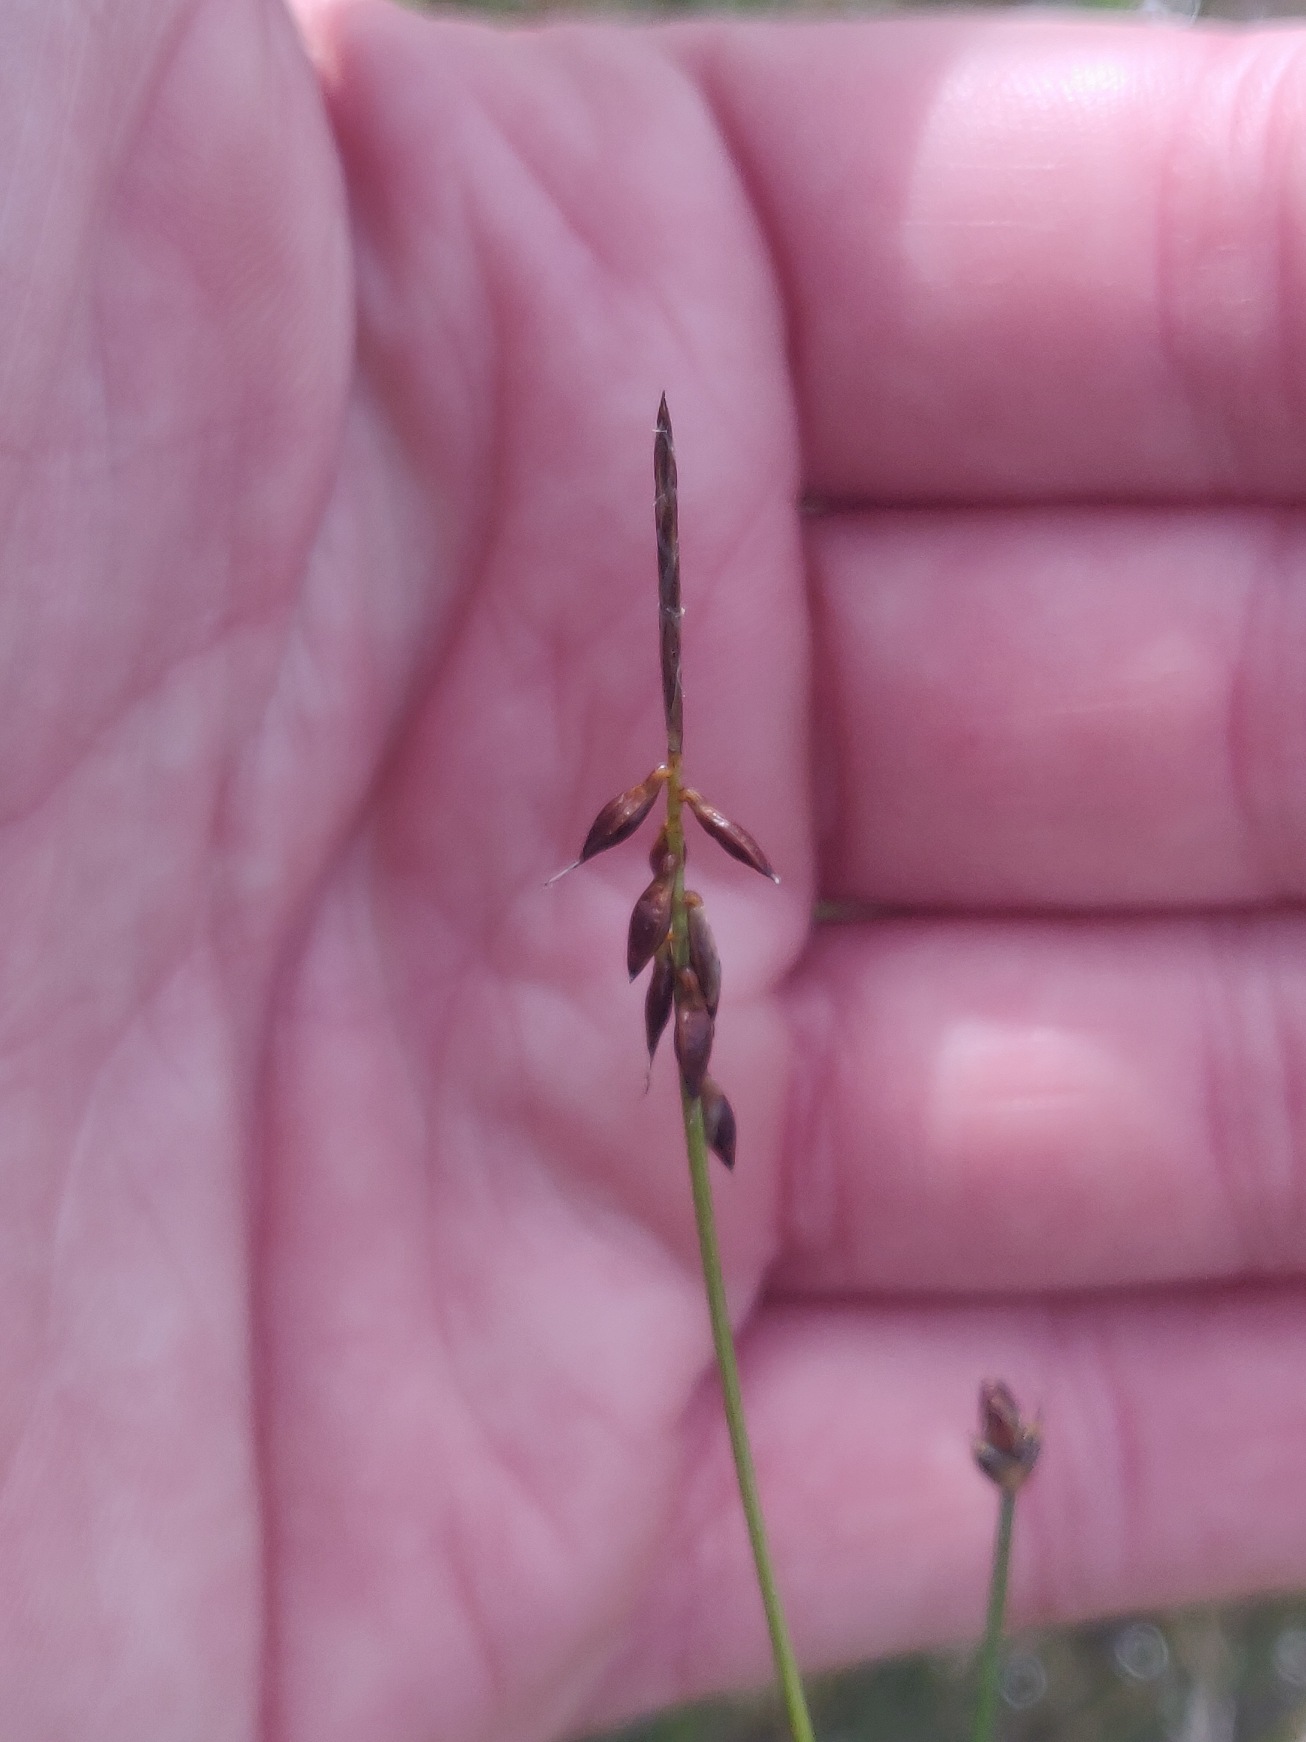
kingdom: Plantae
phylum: Tracheophyta
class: Liliopsida
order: Poales
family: Cyperaceae
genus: Carex
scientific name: Carex pulicaris
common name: Loppe-star
